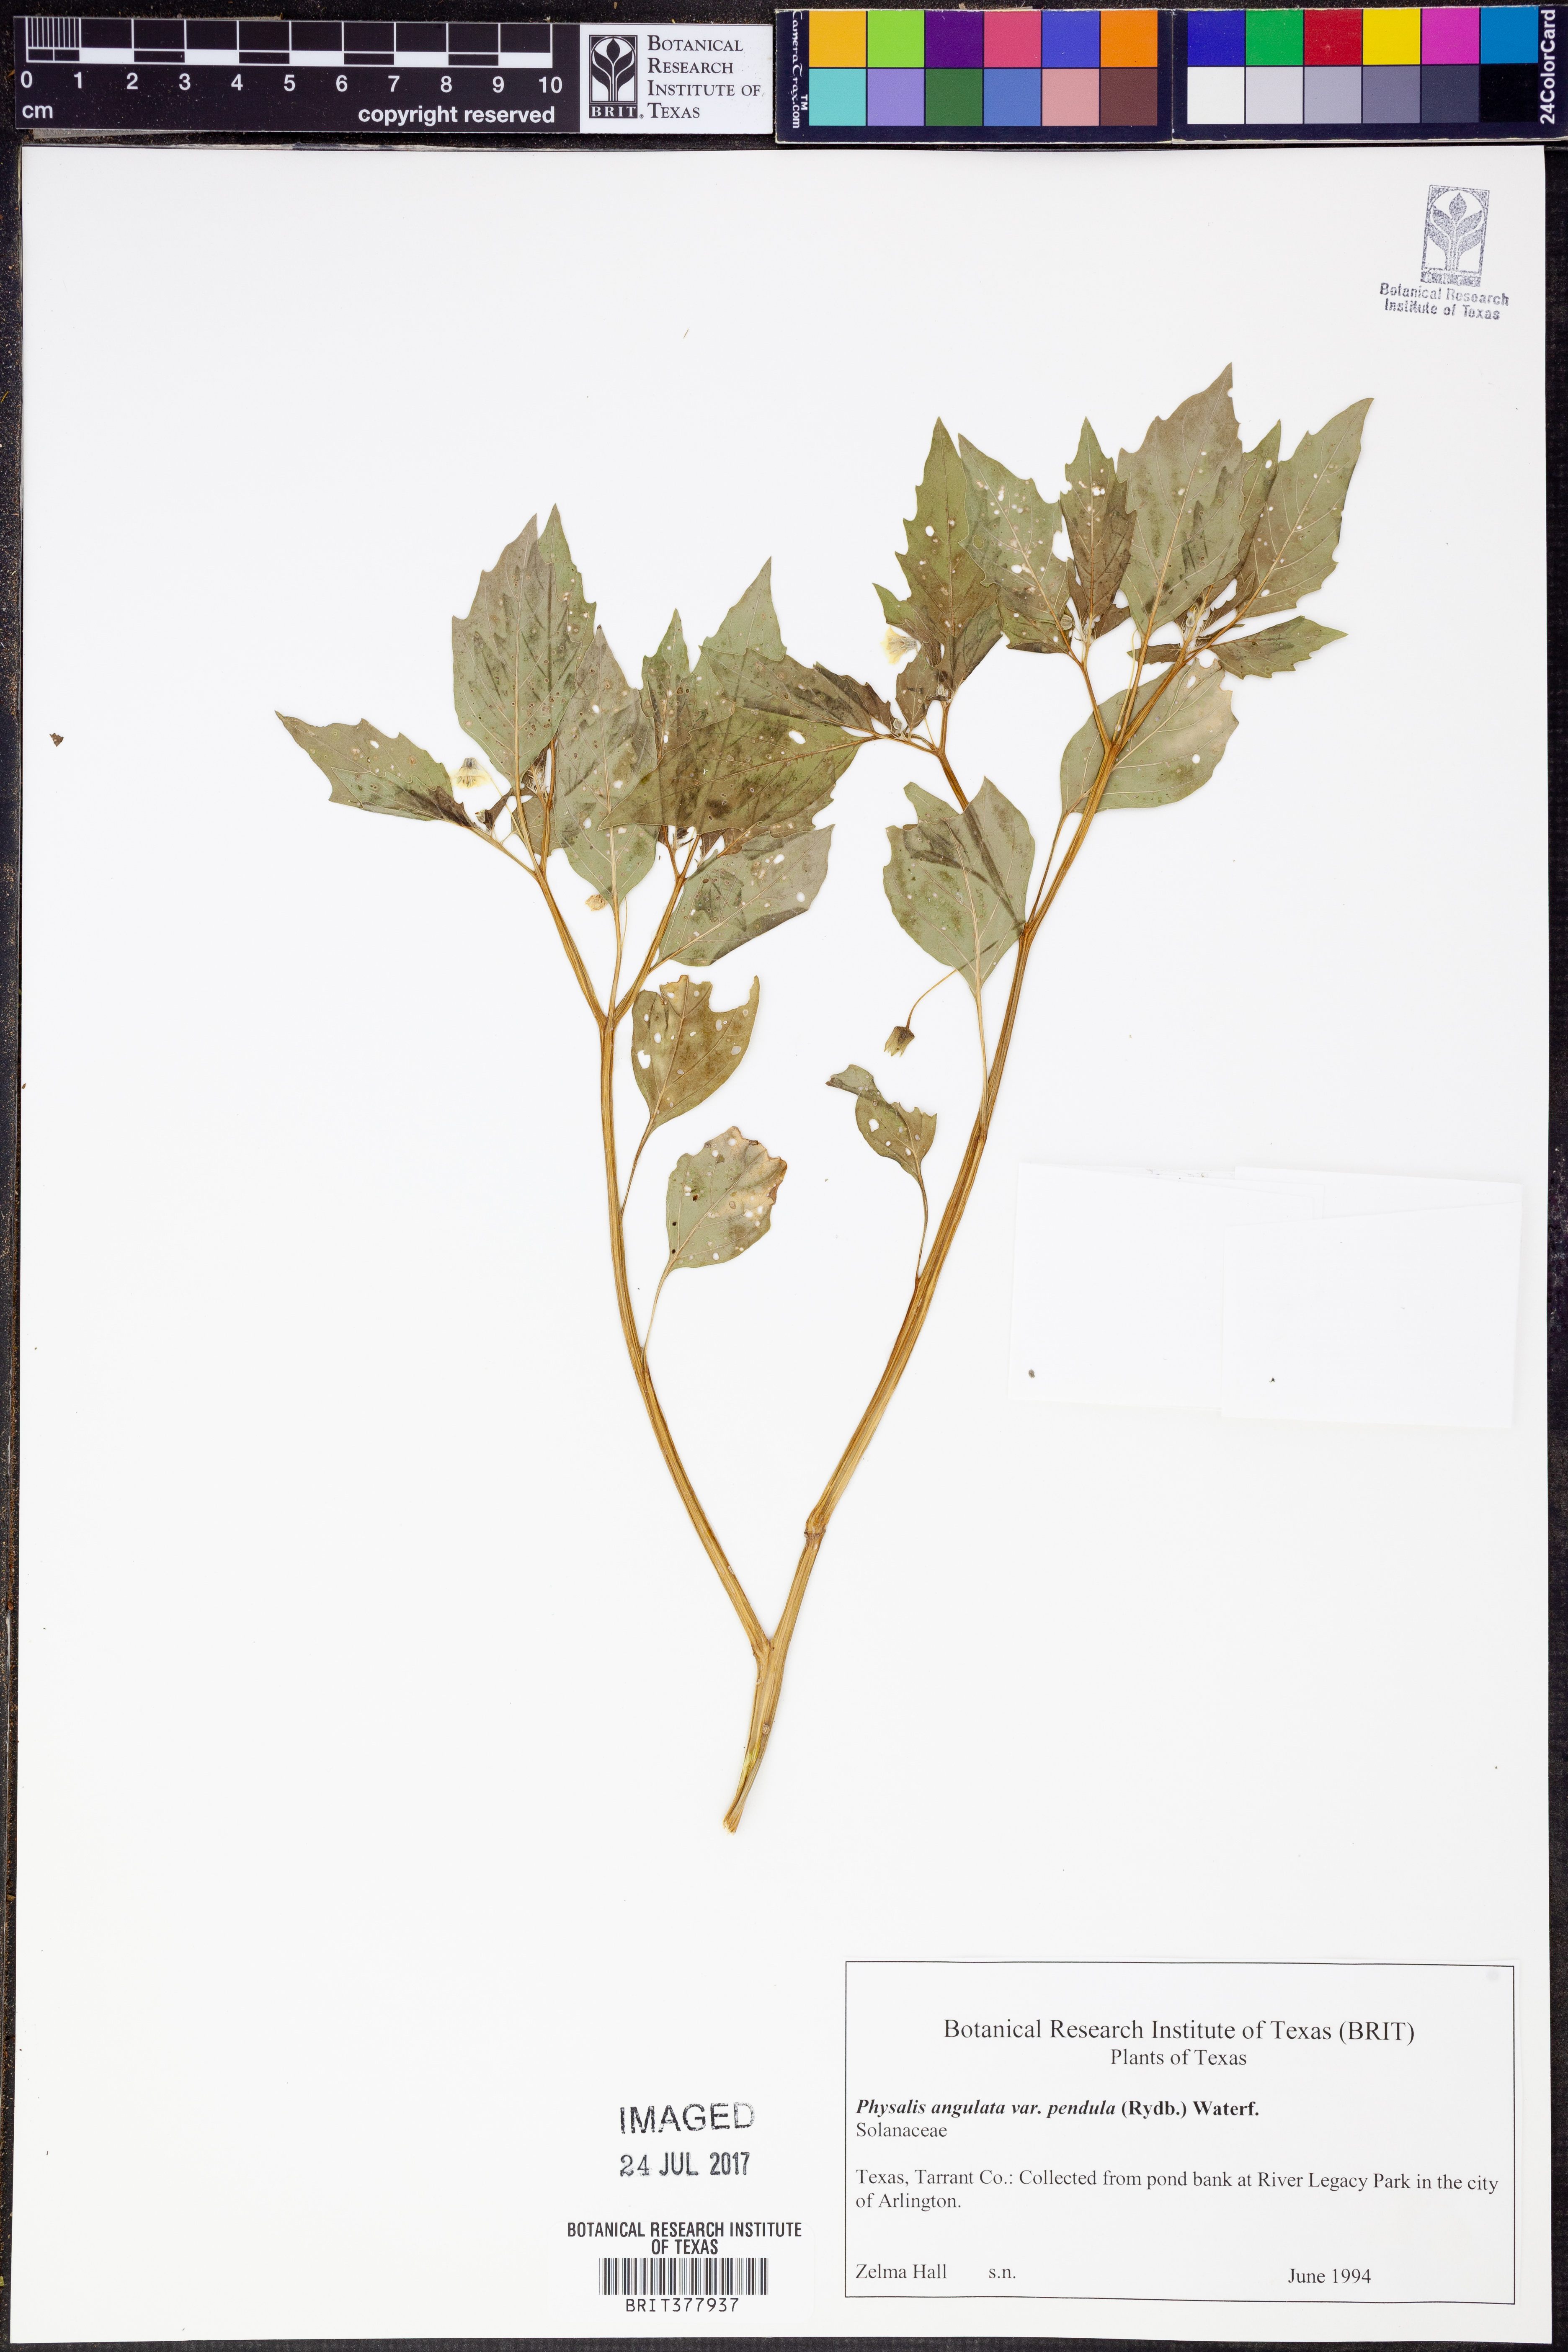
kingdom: Plantae
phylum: Tracheophyta
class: Magnoliopsida
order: Solanales
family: Solanaceae
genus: Physalis
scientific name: Physalis angulata
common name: Angular winter-cherry
